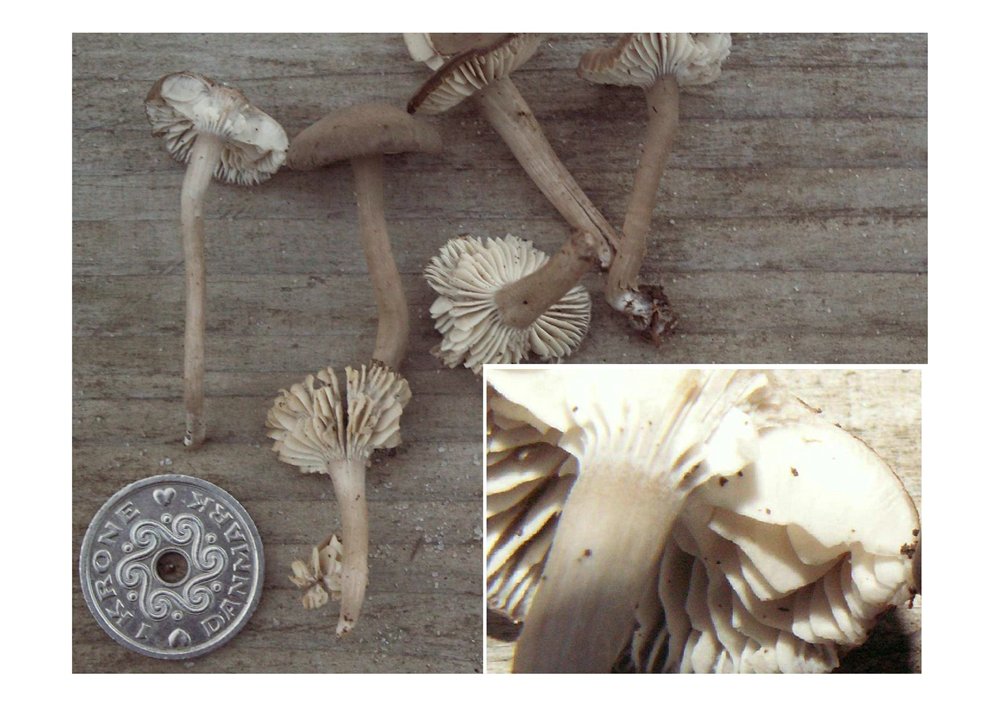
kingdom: Fungi
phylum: Basidiomycota
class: Agaricomycetes
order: Agaricales
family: Clavariaceae
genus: Camarophyllopsis
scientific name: Camarophyllopsis atrovelutina
